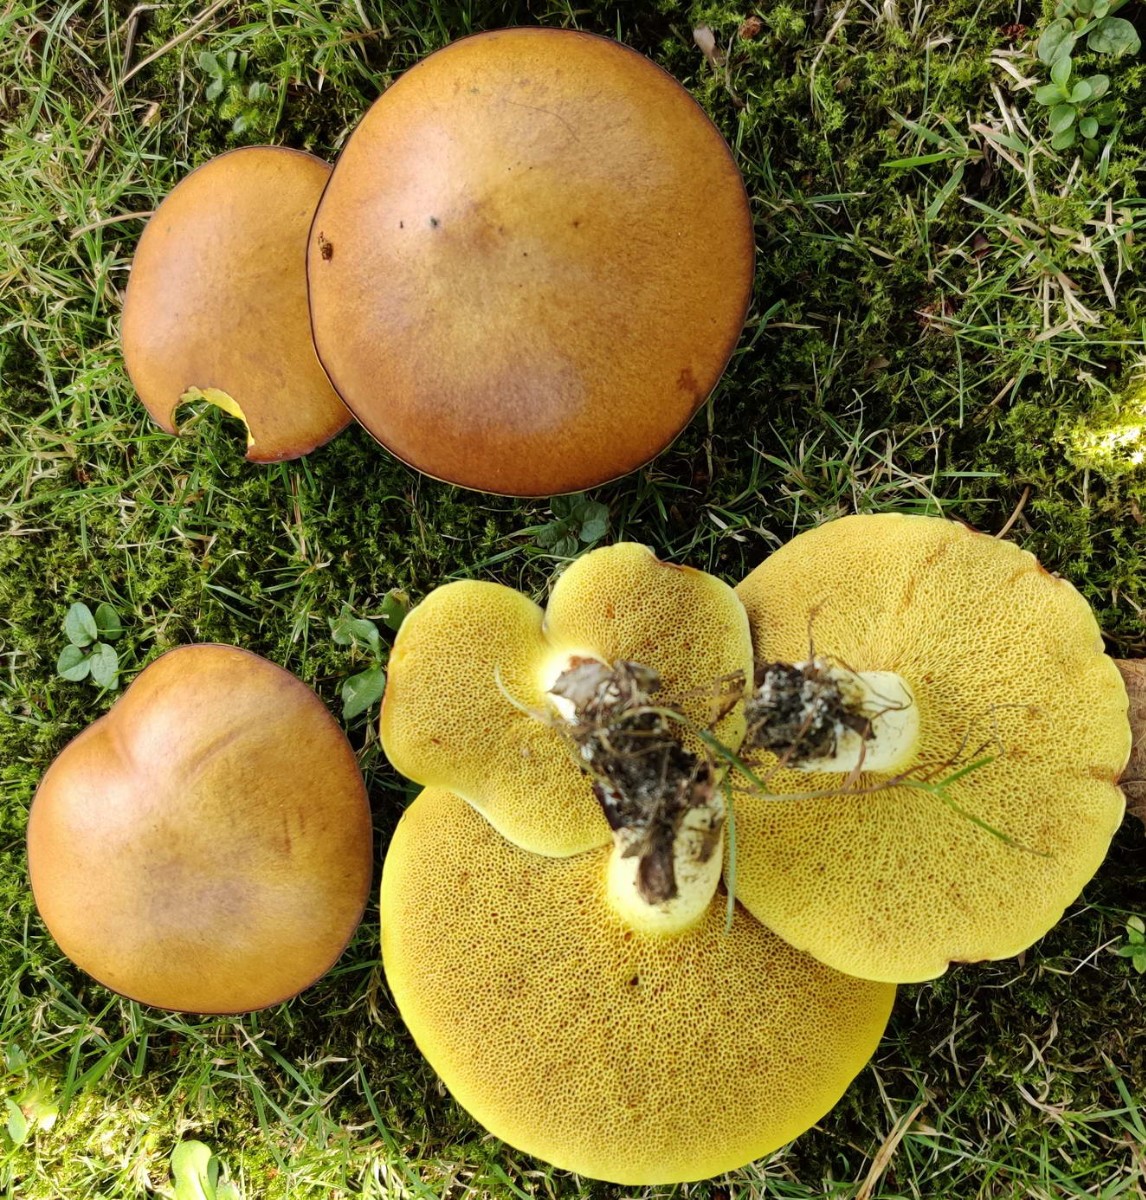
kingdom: Fungi
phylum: Basidiomycota
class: Agaricomycetes
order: Boletales
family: Suillaceae
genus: Suillus
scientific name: Suillus granulatus
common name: kornet slimrørhat
